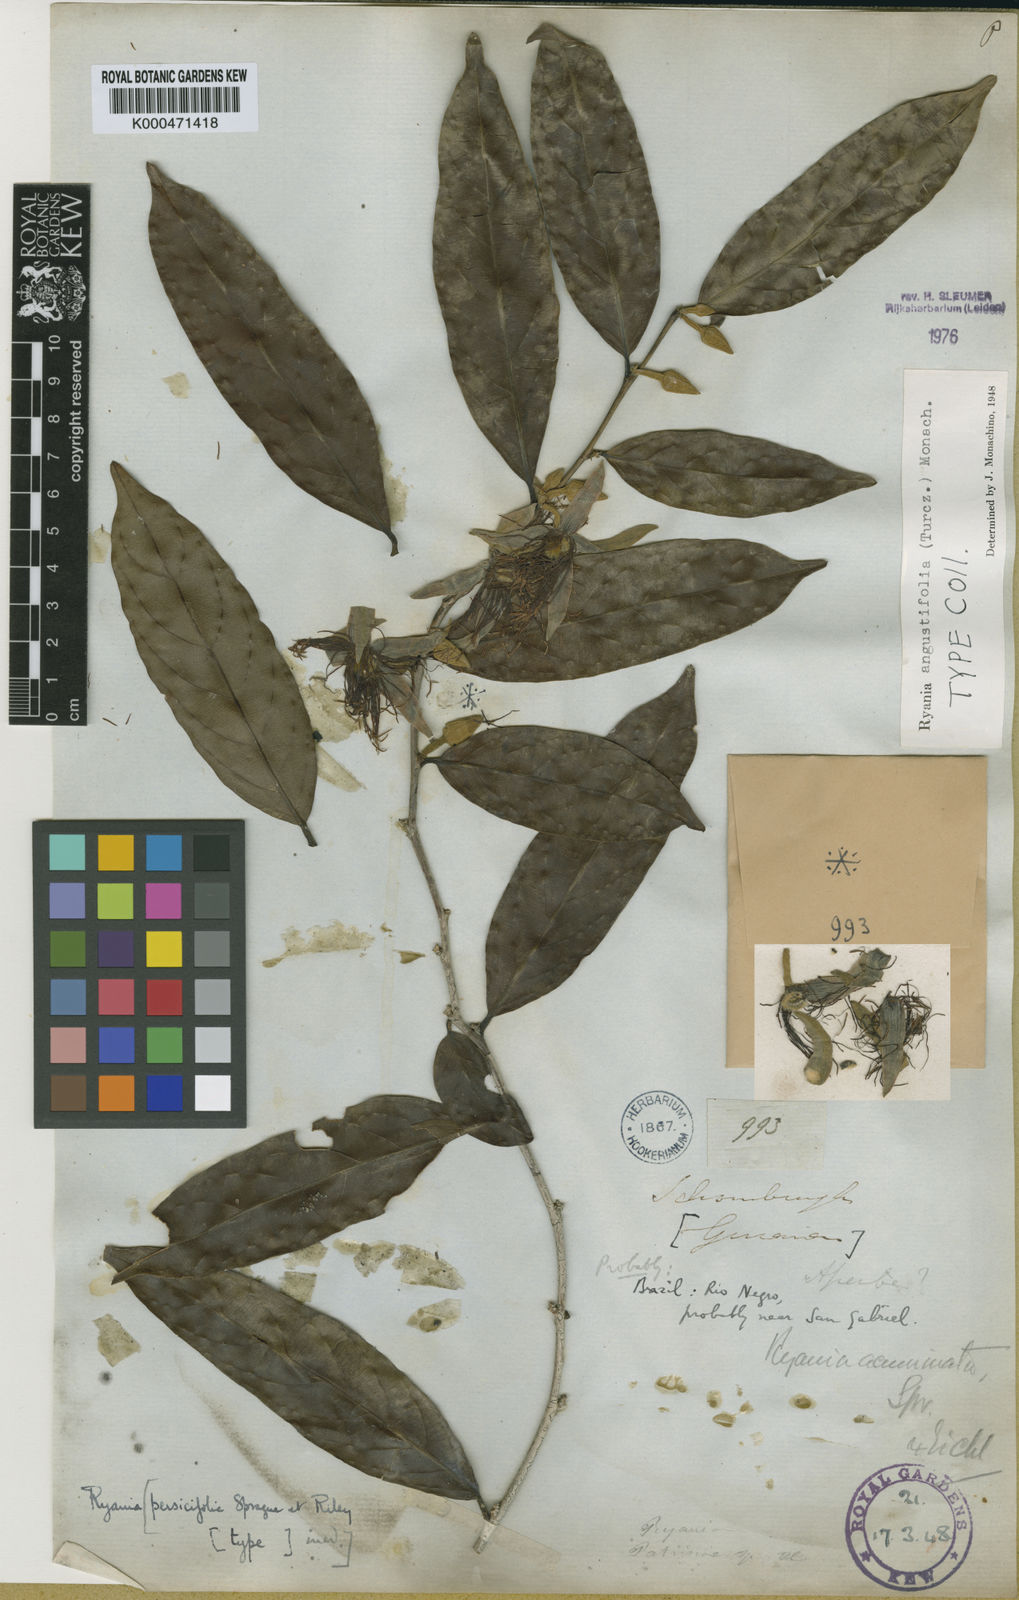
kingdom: Plantae
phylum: Tracheophyta
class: Magnoliopsida
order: Malpighiales
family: Salicaceae
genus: Ryania
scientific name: Ryania angustifolia
